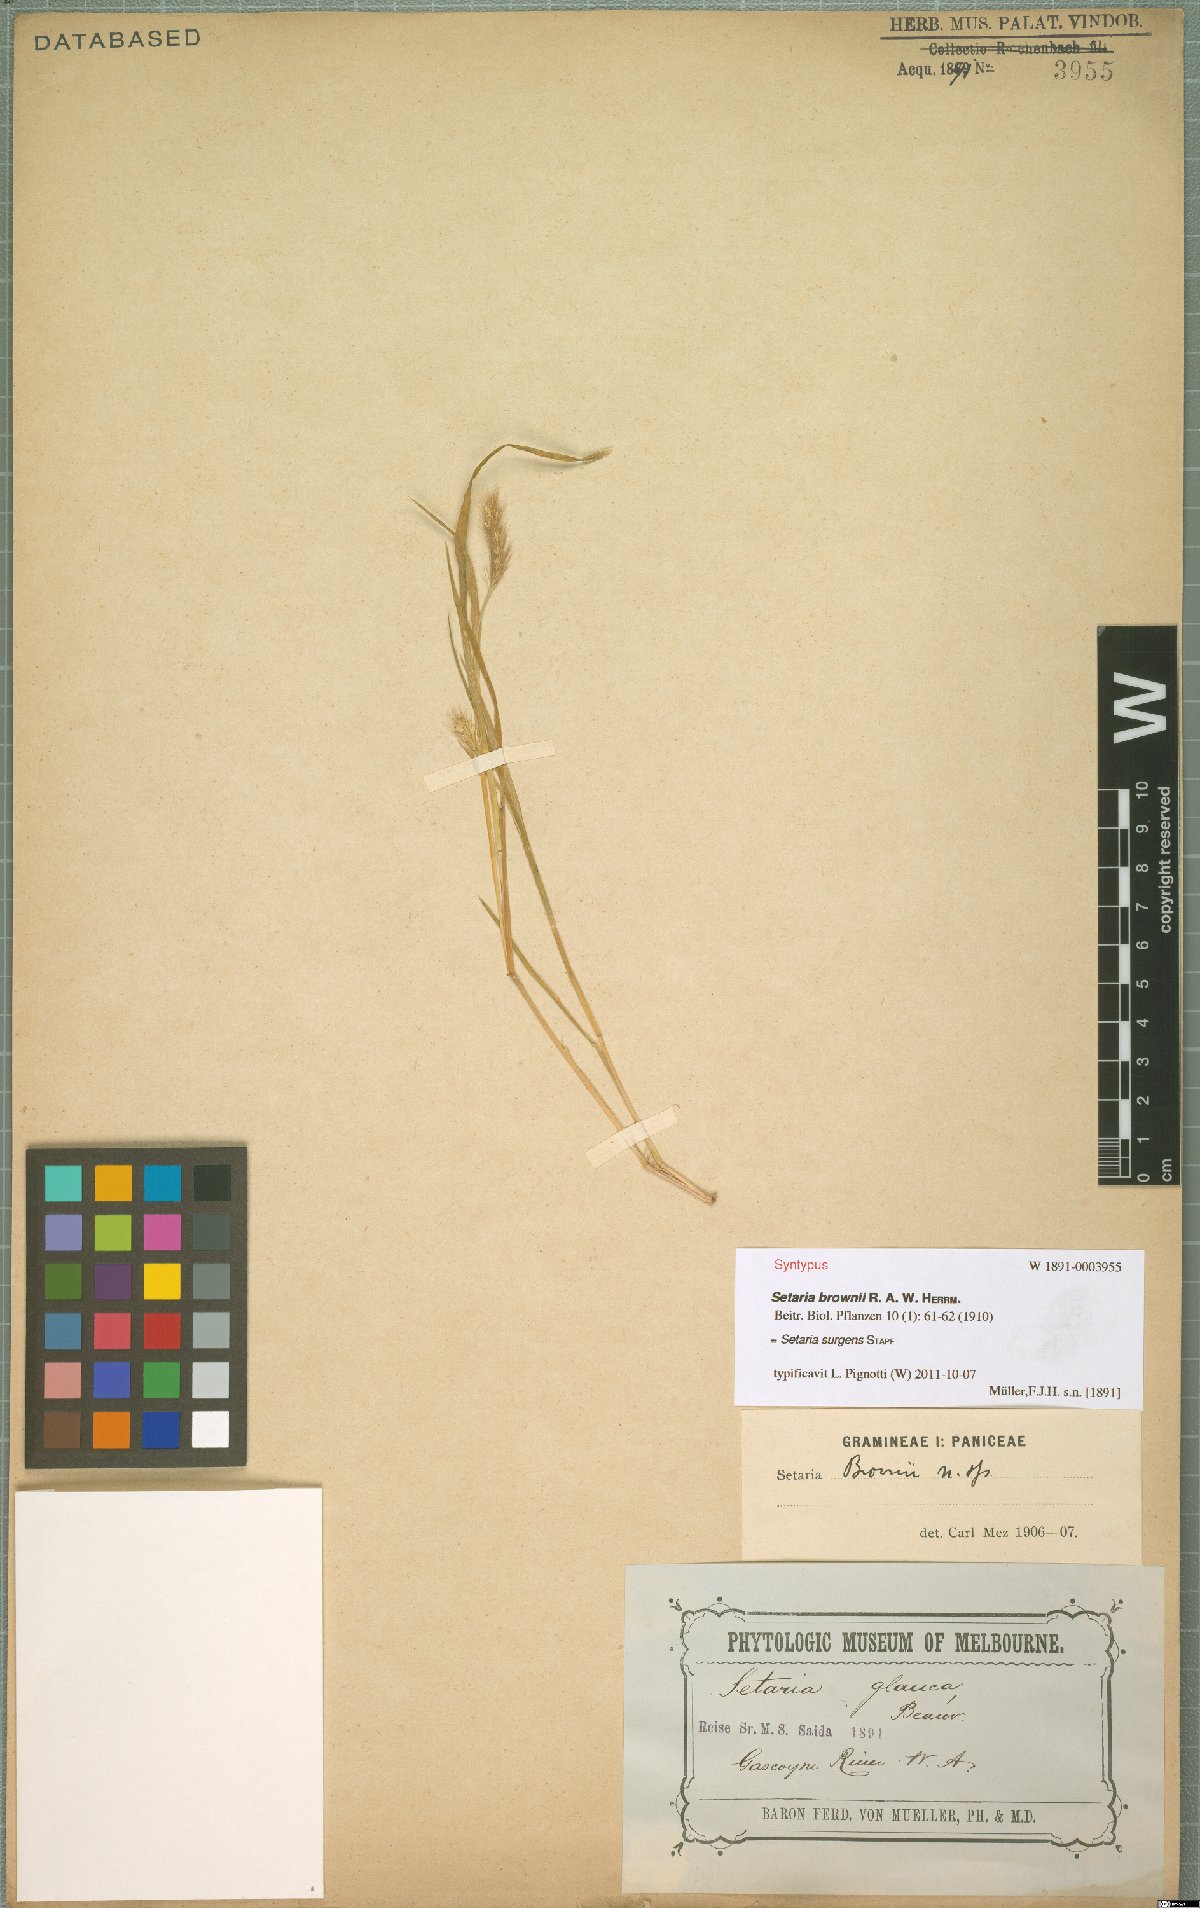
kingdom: Plantae
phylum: Tracheophyta
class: Liliopsida
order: Poales
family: Poaceae
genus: Setaria
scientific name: Setaria surgens
